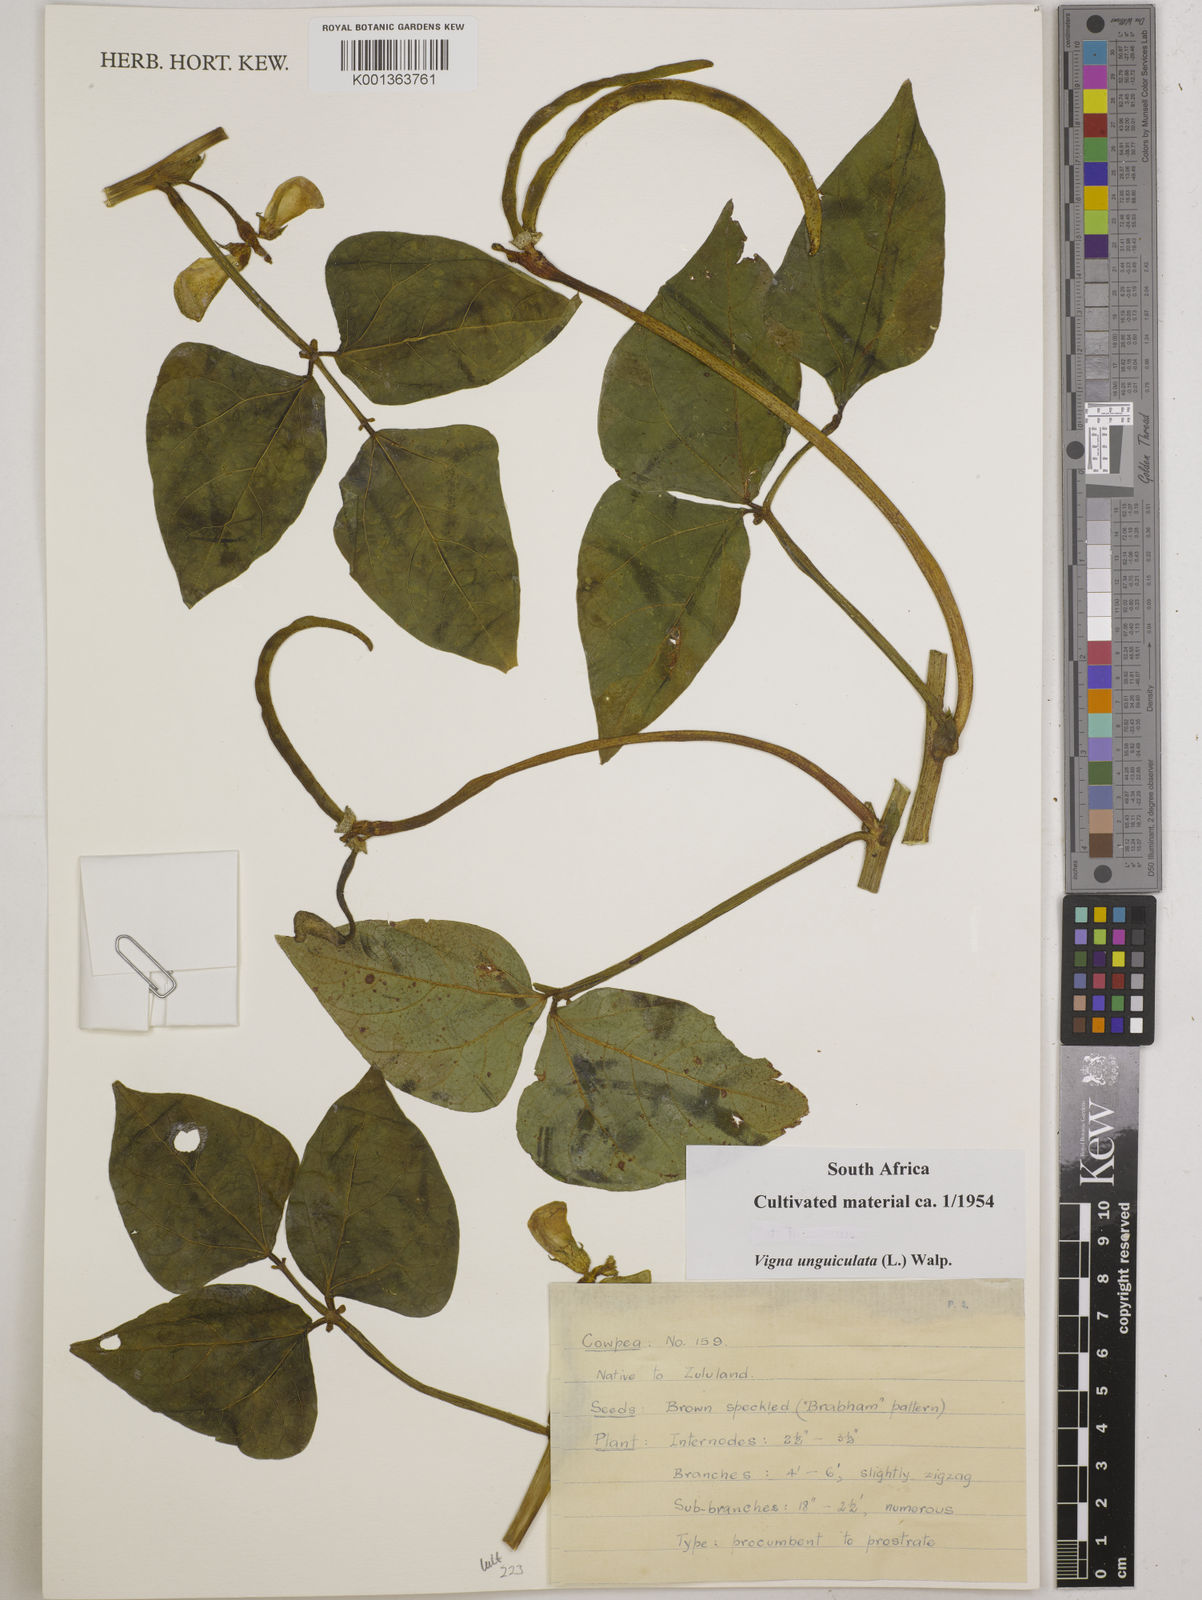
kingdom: Plantae
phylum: Tracheophyta
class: Magnoliopsida
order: Fabales
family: Fabaceae
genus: Vigna
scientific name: Vigna unguiculata
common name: Cowpea
